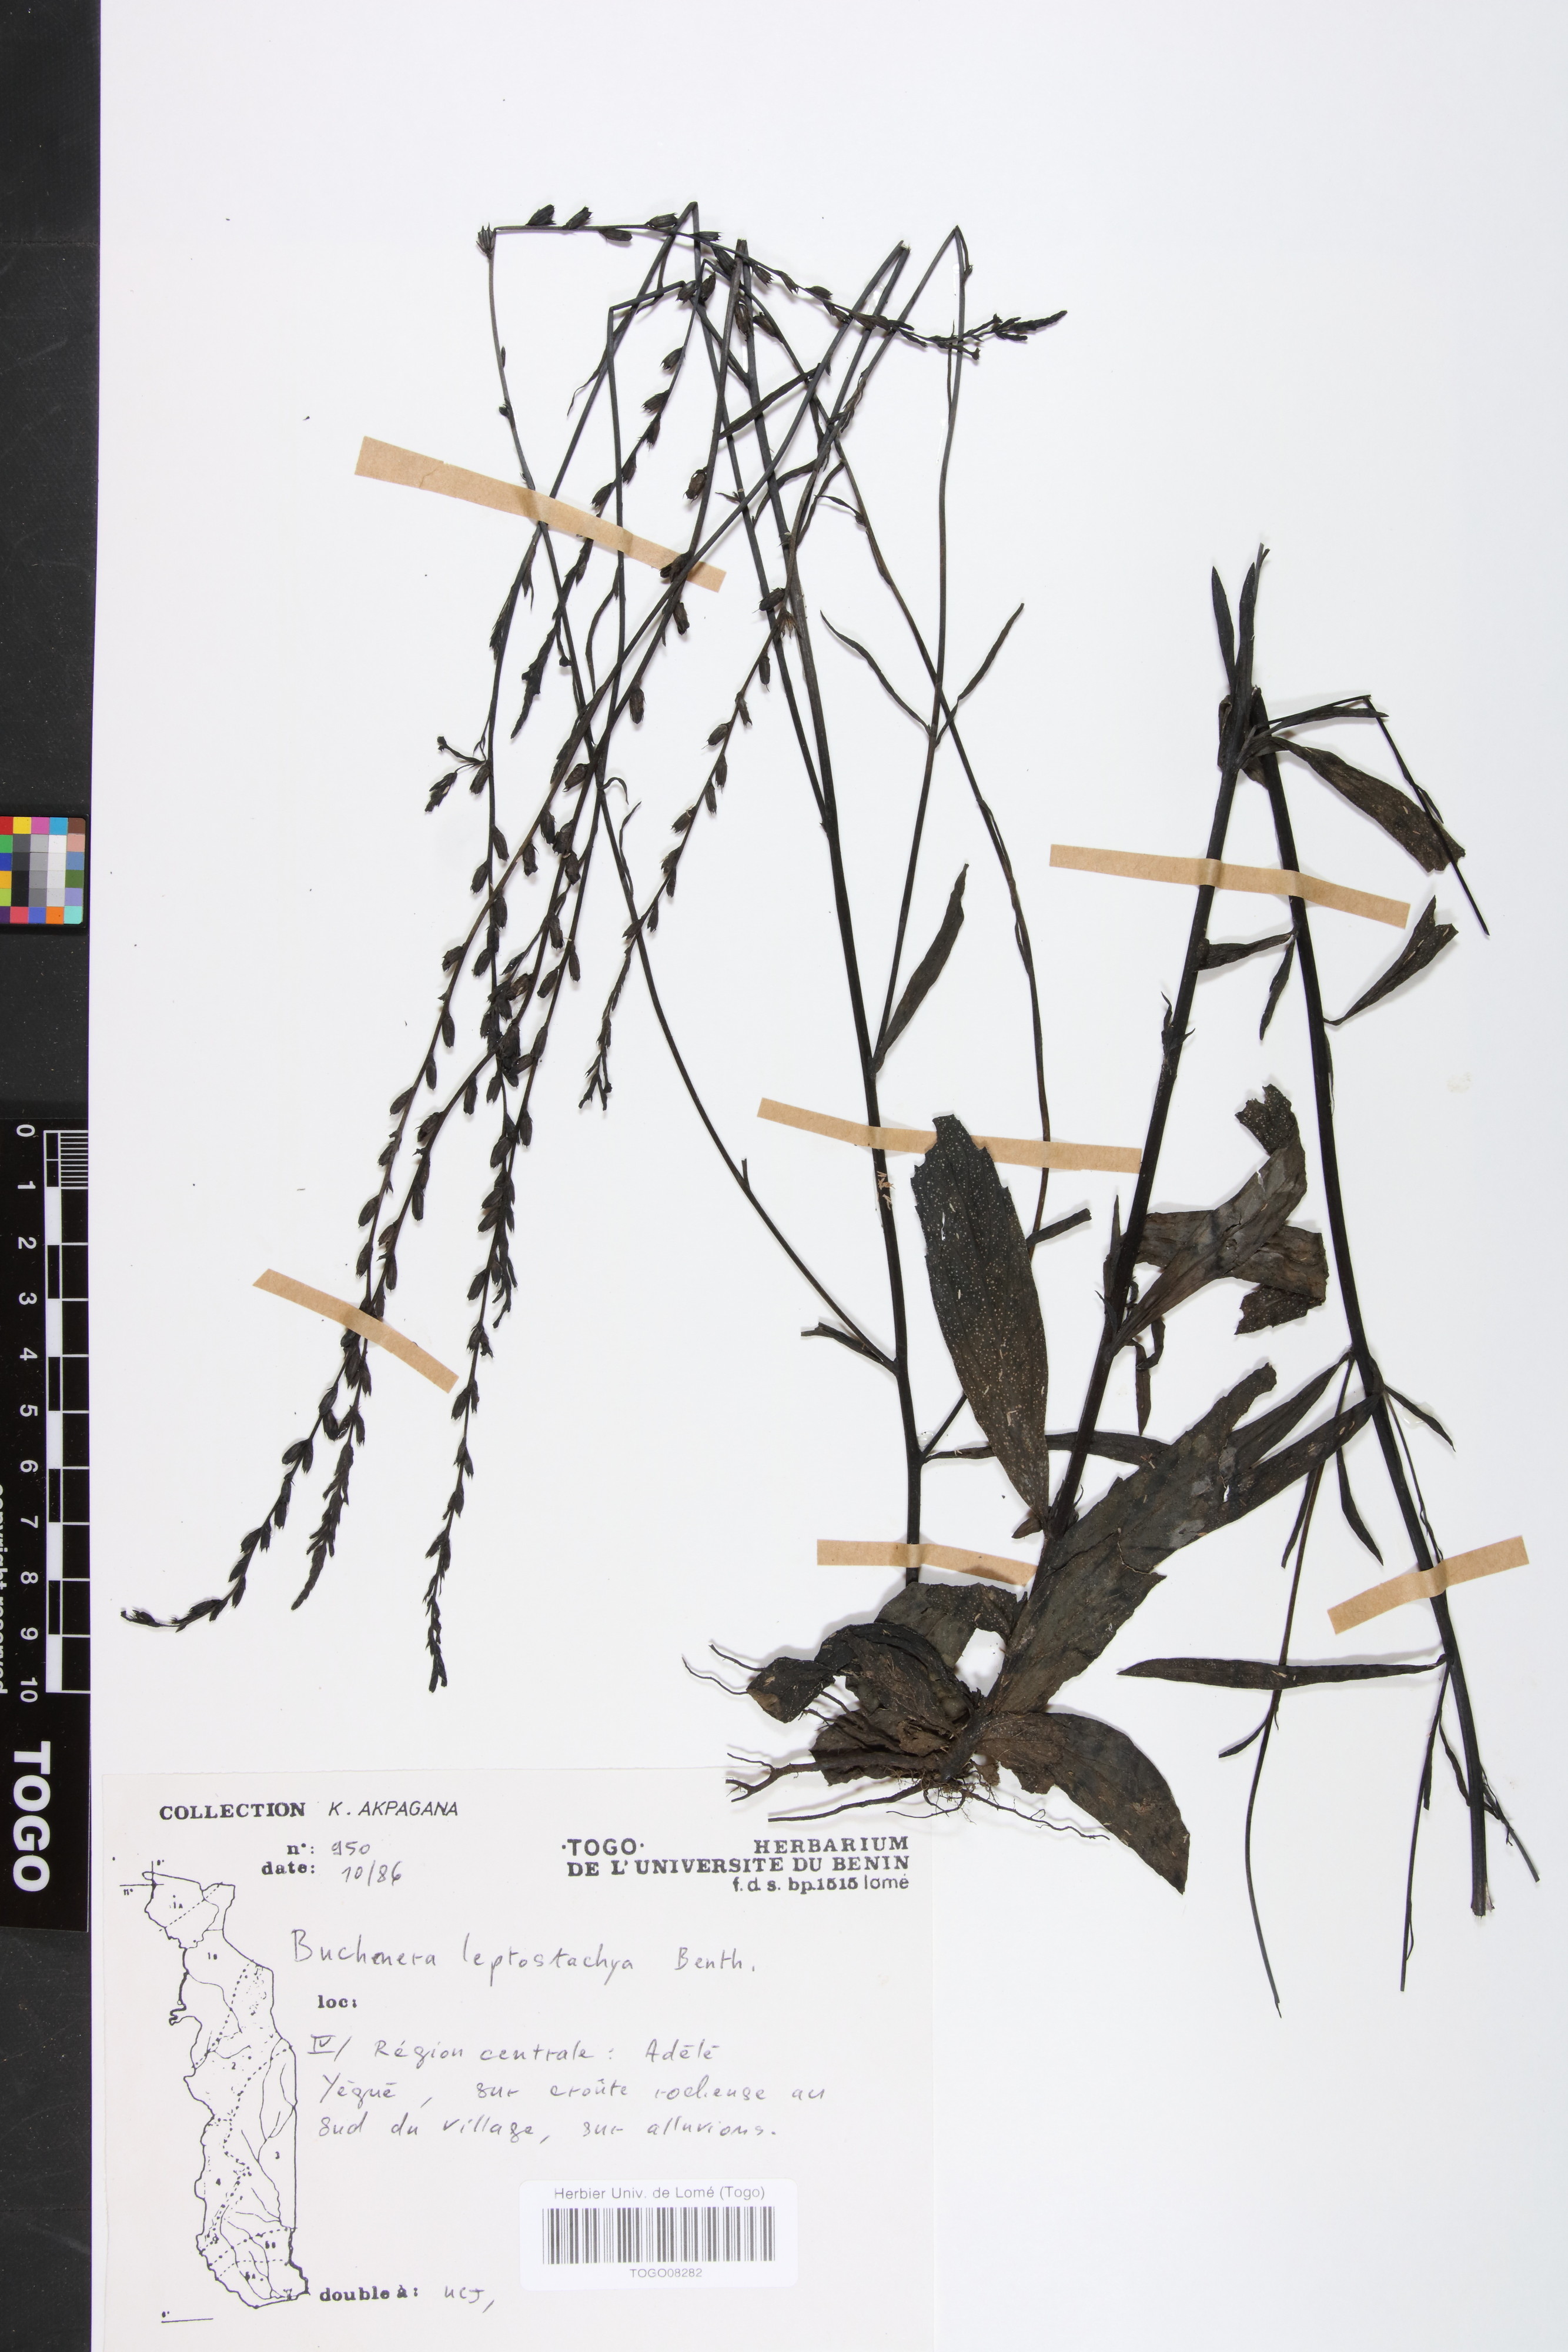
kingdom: Plantae
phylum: Tracheophyta
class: Magnoliopsida
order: Lamiales
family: Orobanchaceae
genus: Buchnera
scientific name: Buchnera leptostachya
